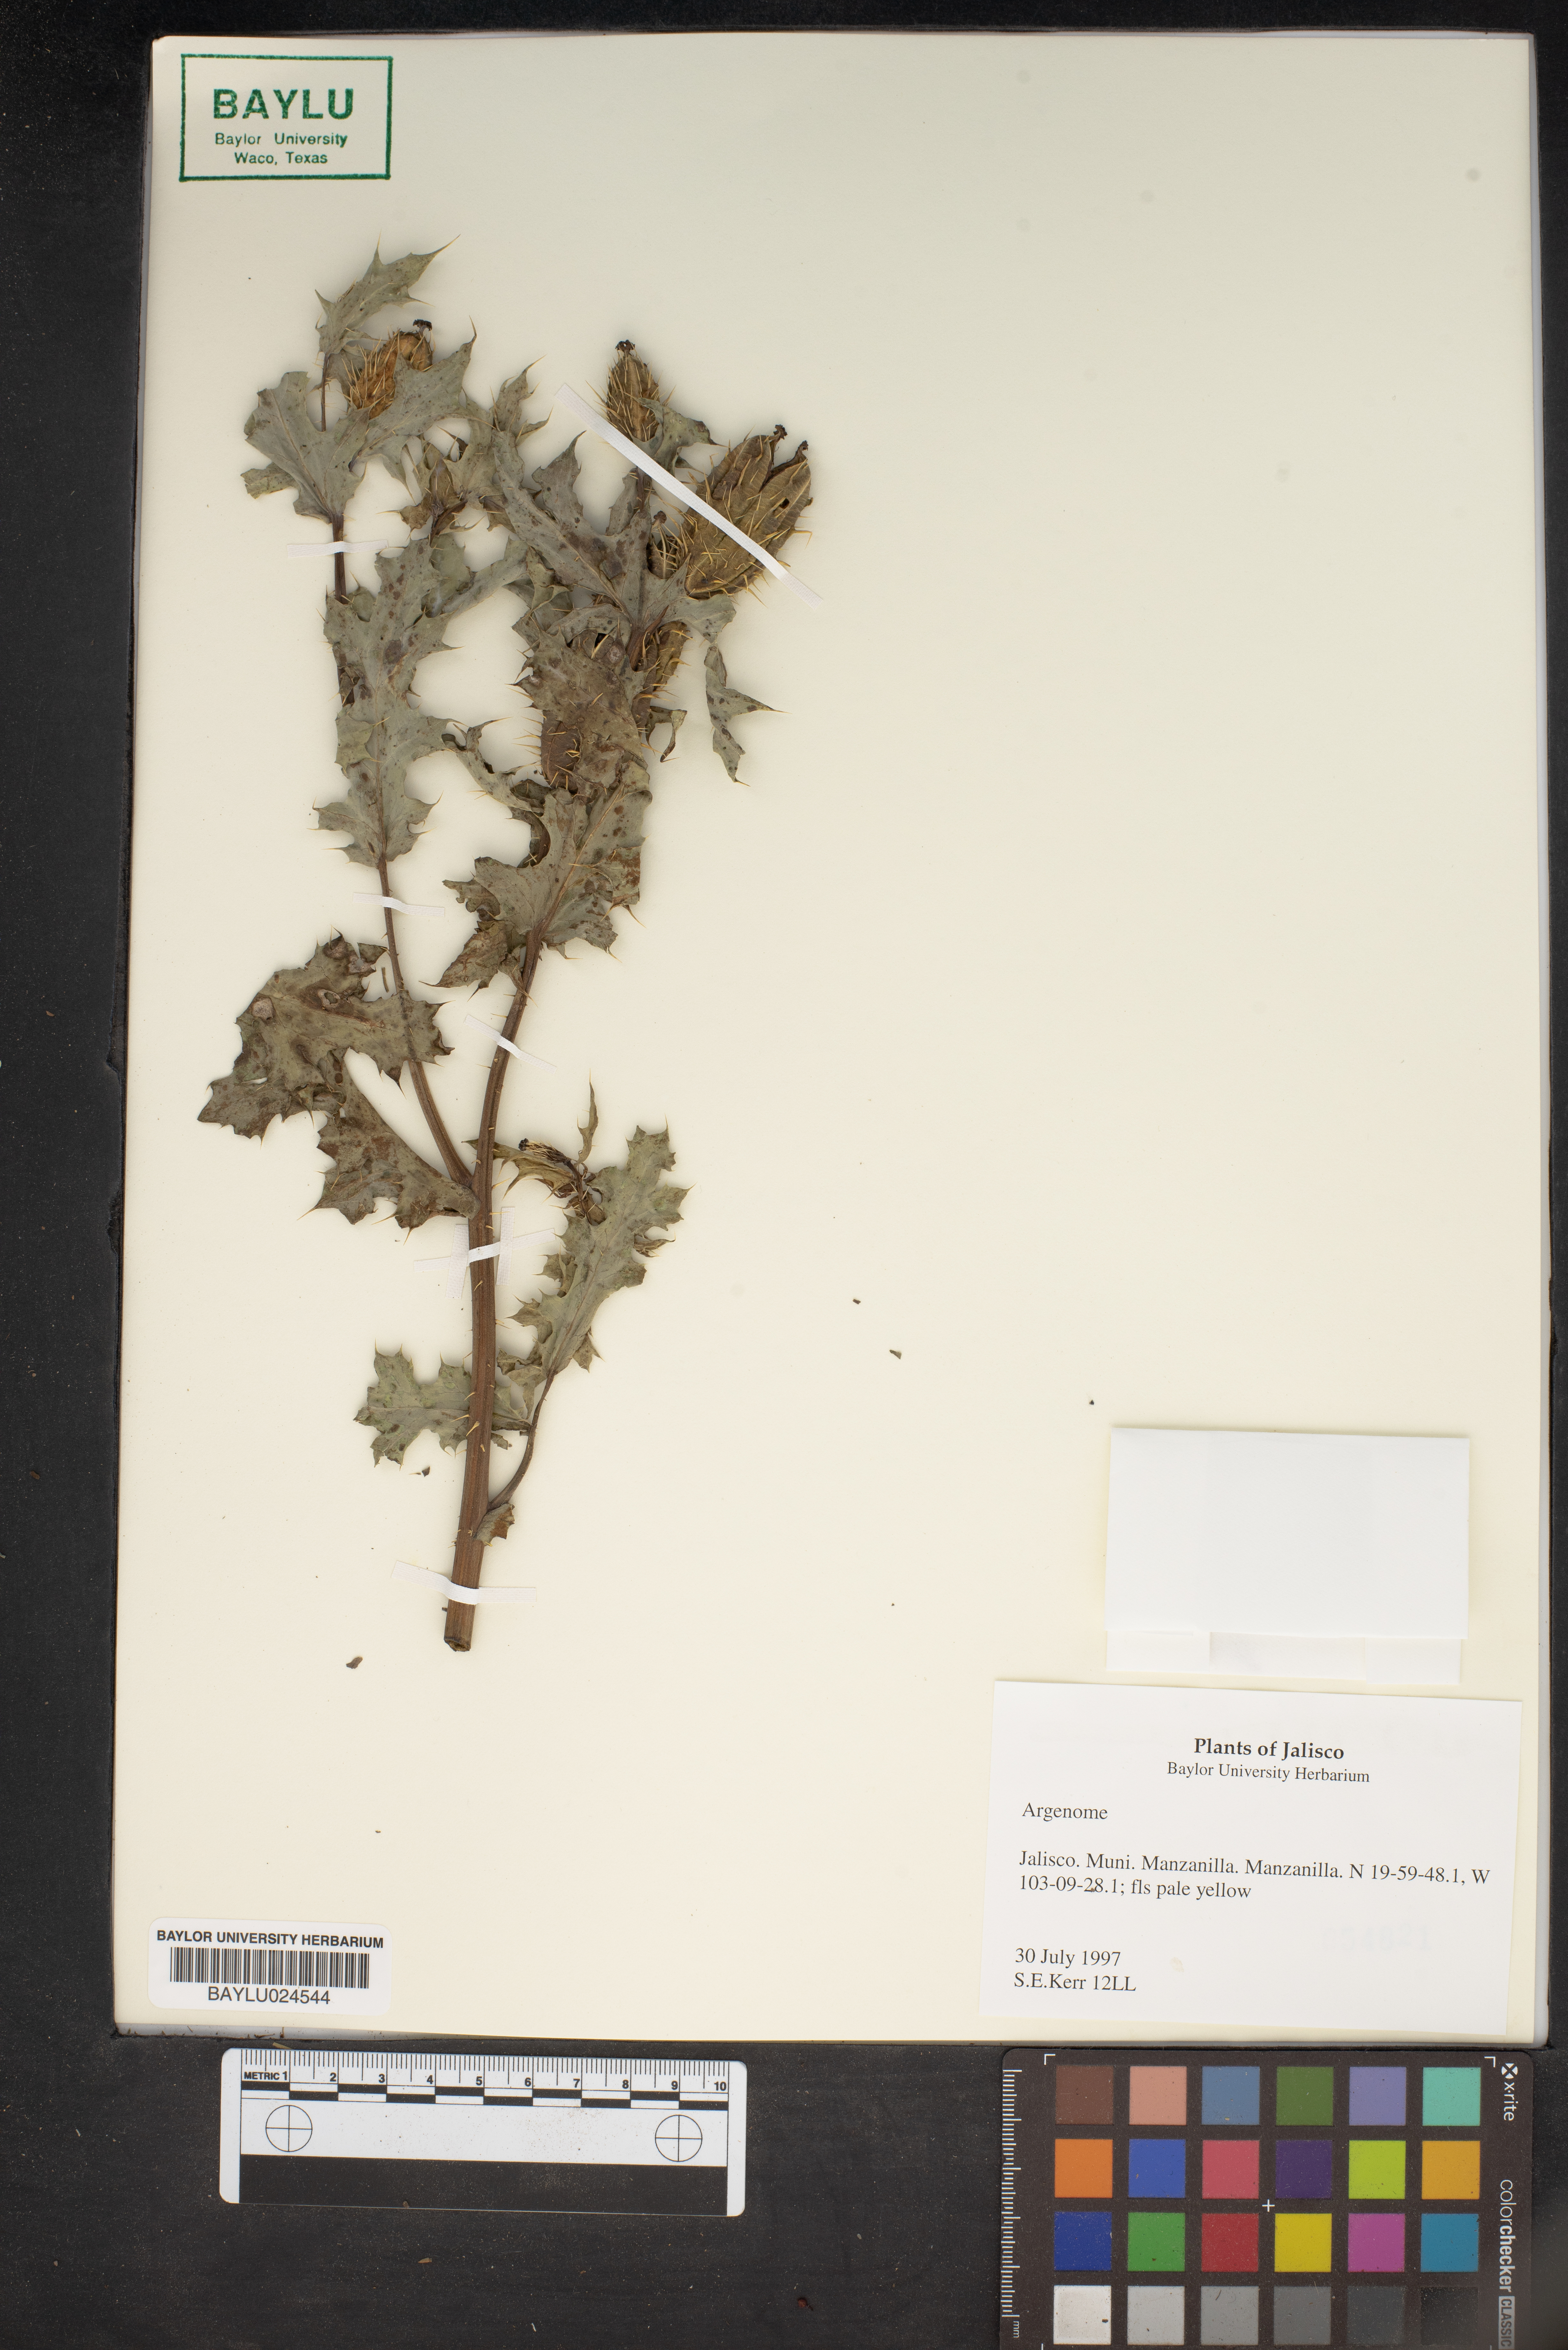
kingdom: Plantae
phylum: Tracheophyta
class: Magnoliopsida
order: Ranunculales
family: Papaveraceae
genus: Argemone
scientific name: Argemone
